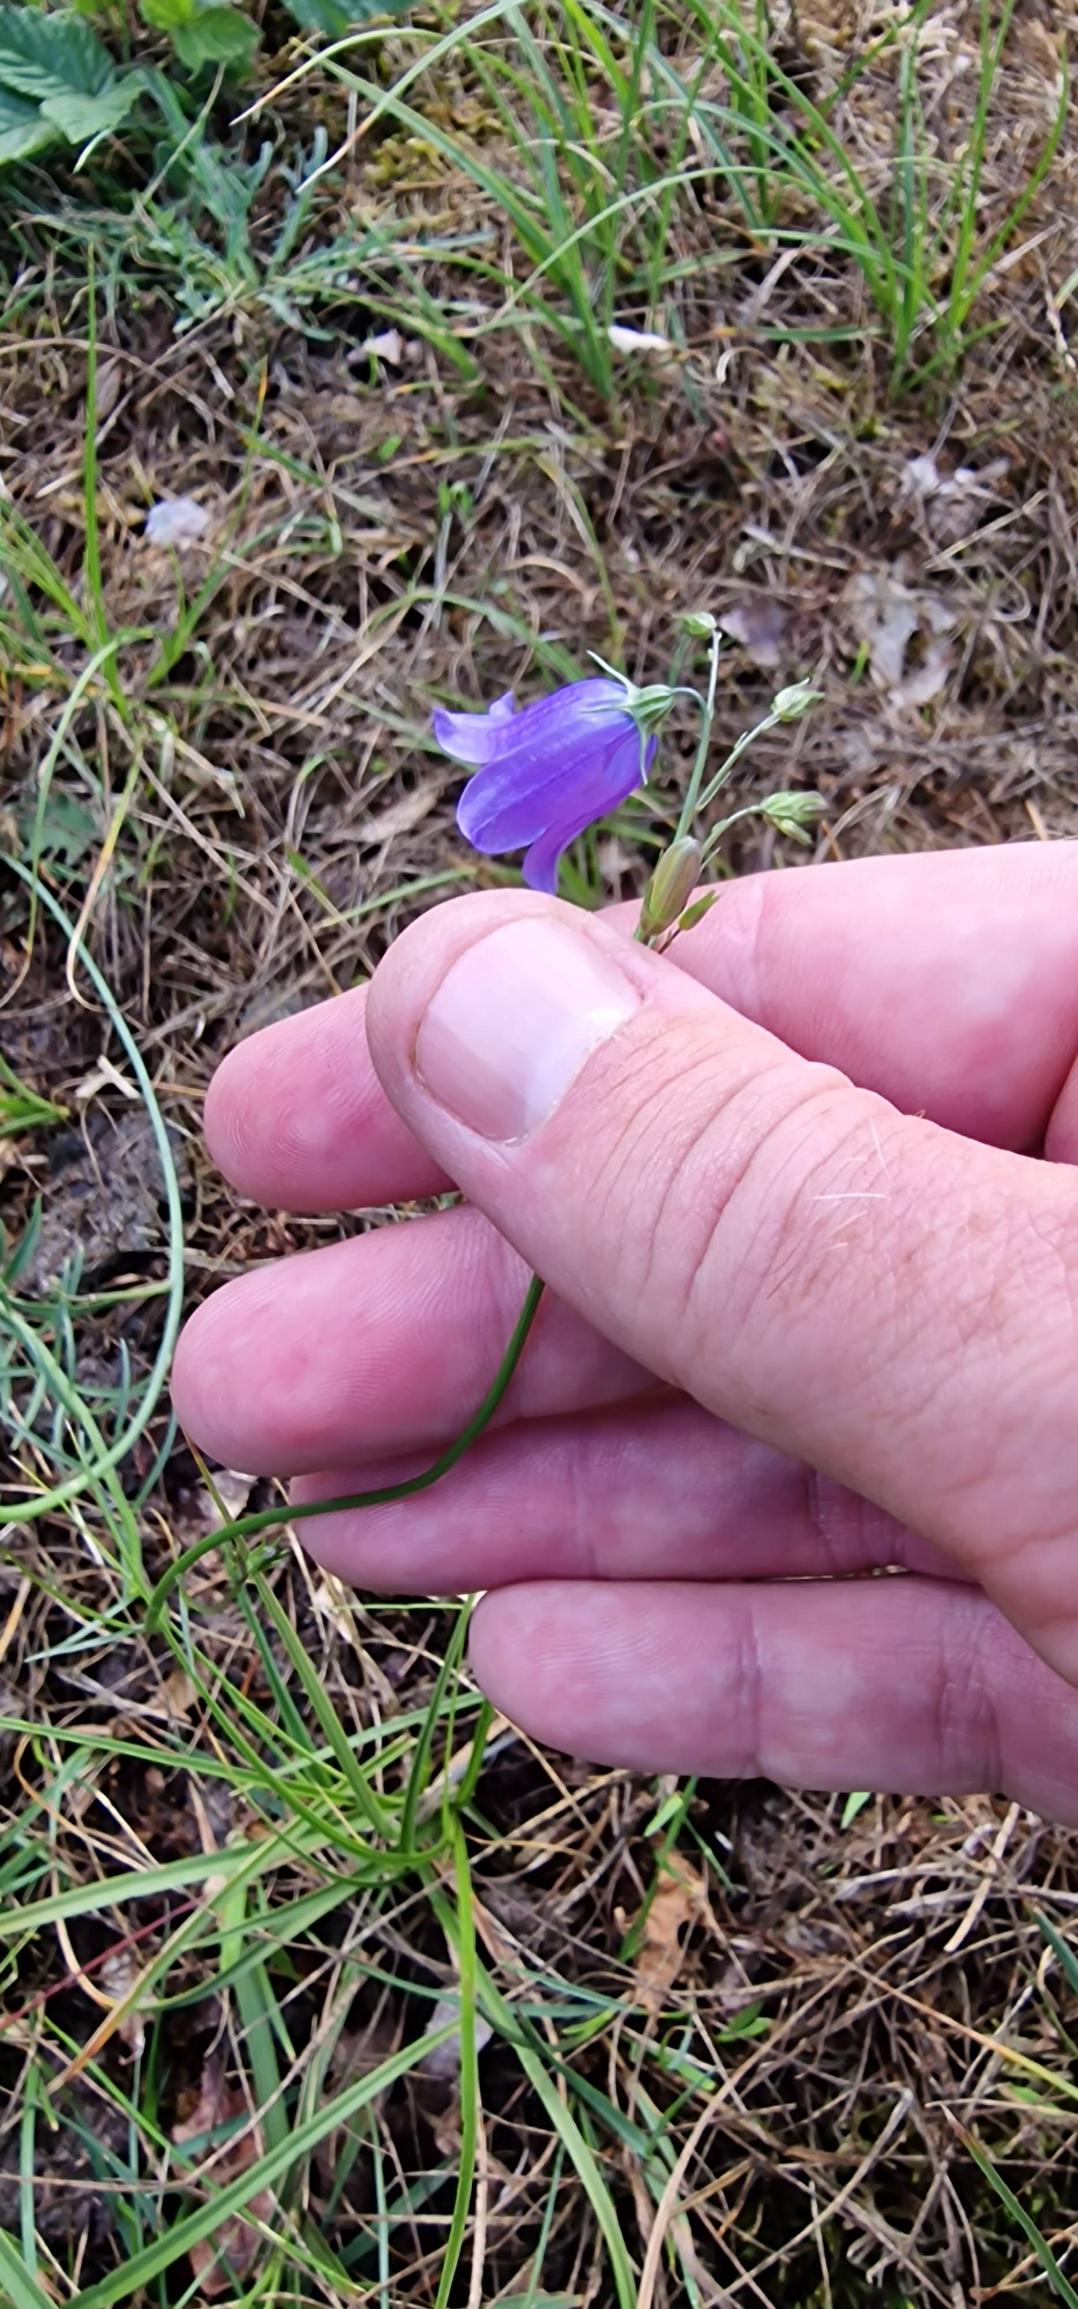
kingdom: Plantae
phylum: Tracheophyta
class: Magnoliopsida
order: Asterales
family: Campanulaceae
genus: Campanula
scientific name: Campanula rotundifolia
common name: Liden klokke
